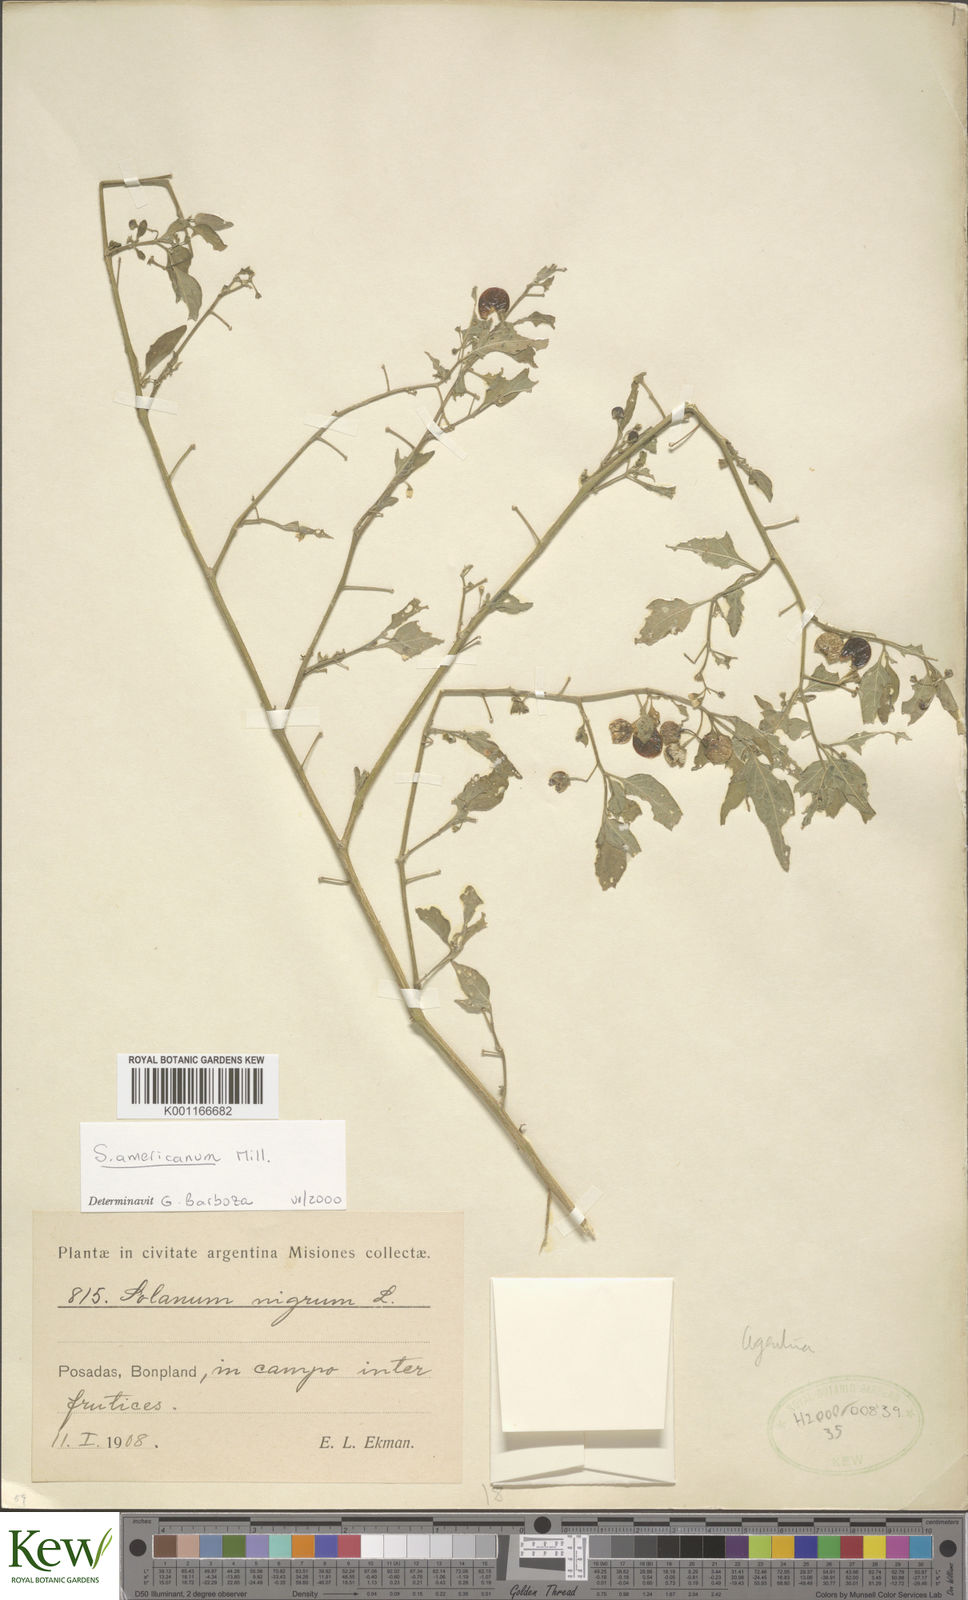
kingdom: Plantae
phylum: Tracheophyta
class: Magnoliopsida
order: Solanales
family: Solanaceae
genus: Solanum
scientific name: Solanum americanum
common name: American black nightshade
